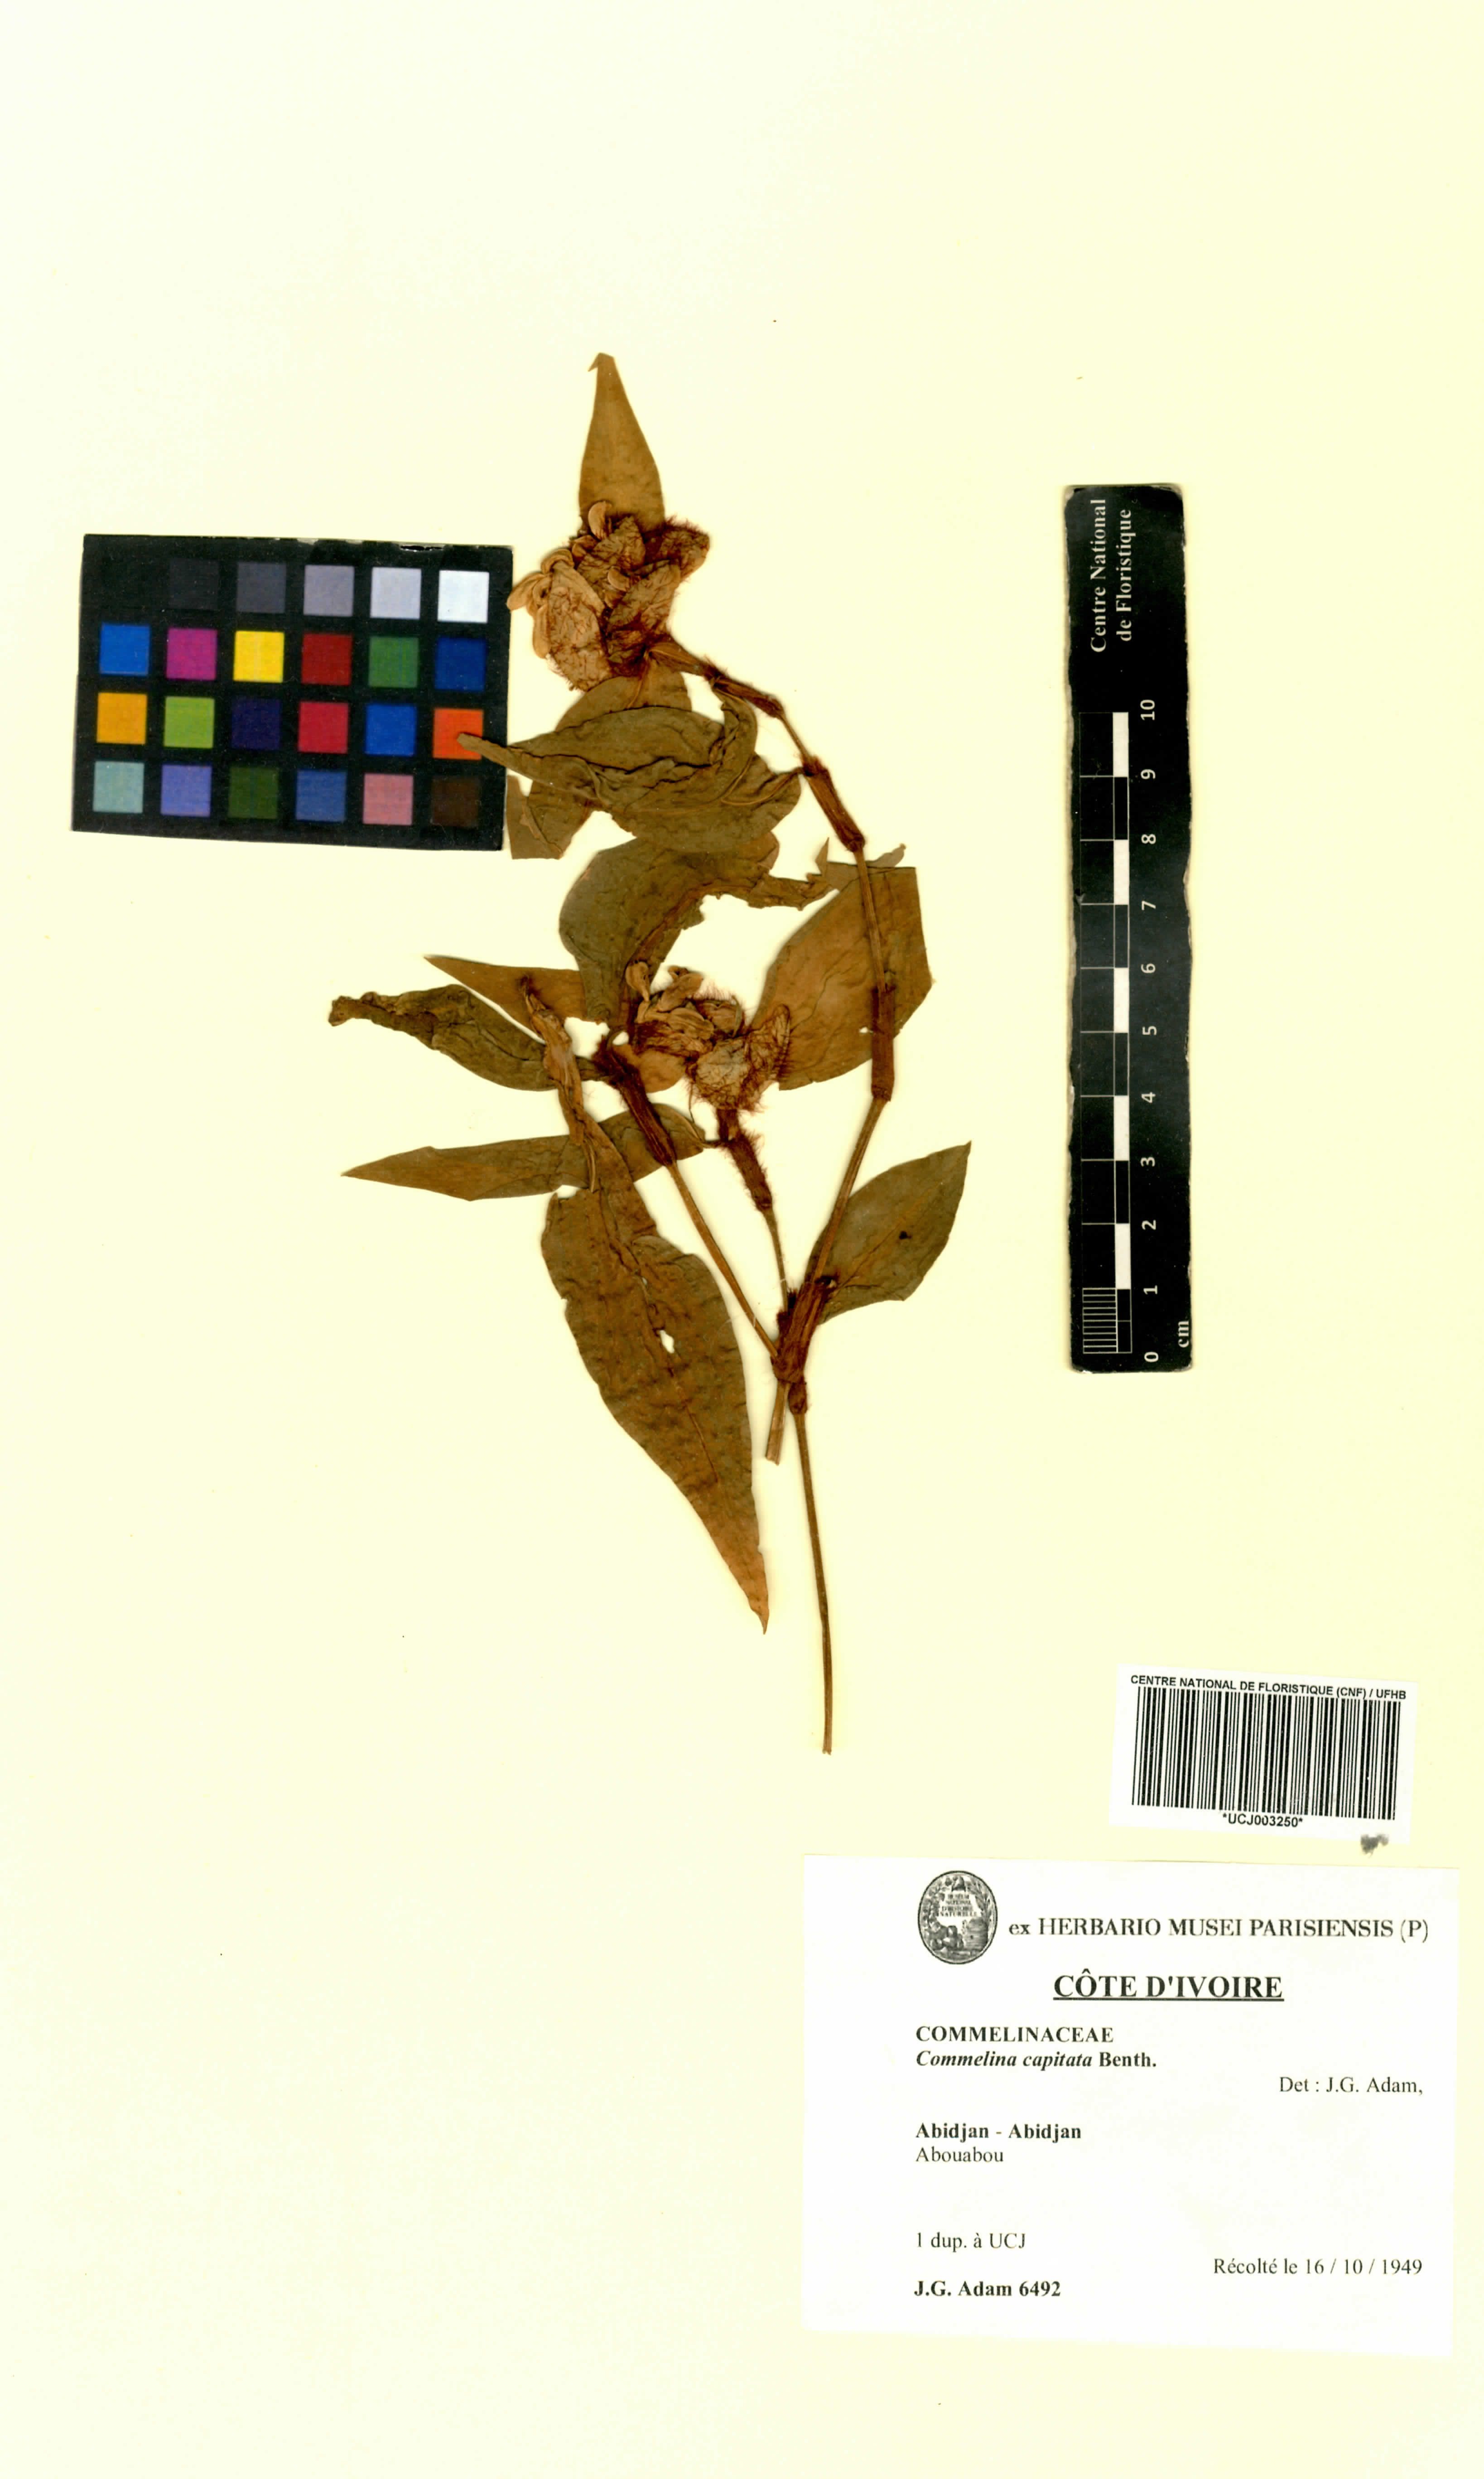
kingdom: Plantae
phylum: Tracheophyta
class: Liliopsida
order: Commelinales
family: Commelinaceae
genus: Commelina
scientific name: Commelina capitata
